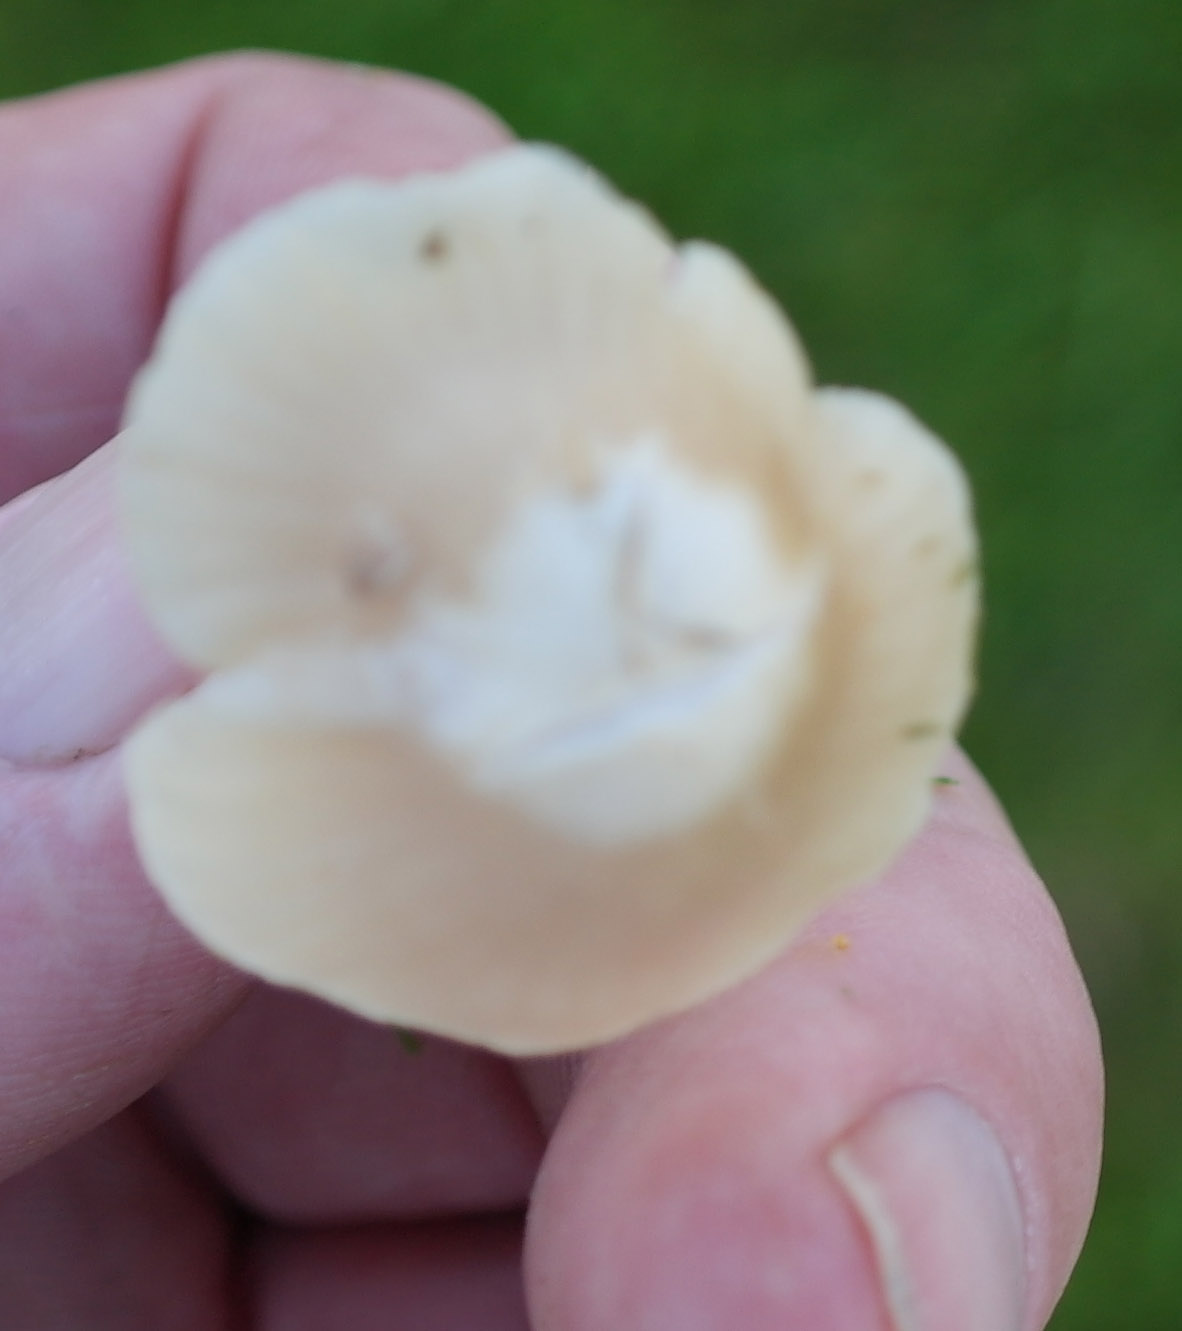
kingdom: Fungi
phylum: Basidiomycota
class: Agaricomycetes
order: Agaricales
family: Hygrophoraceae
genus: Cuphophyllus
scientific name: Cuphophyllus russocoriaceus
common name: ruslæder-vokshat
